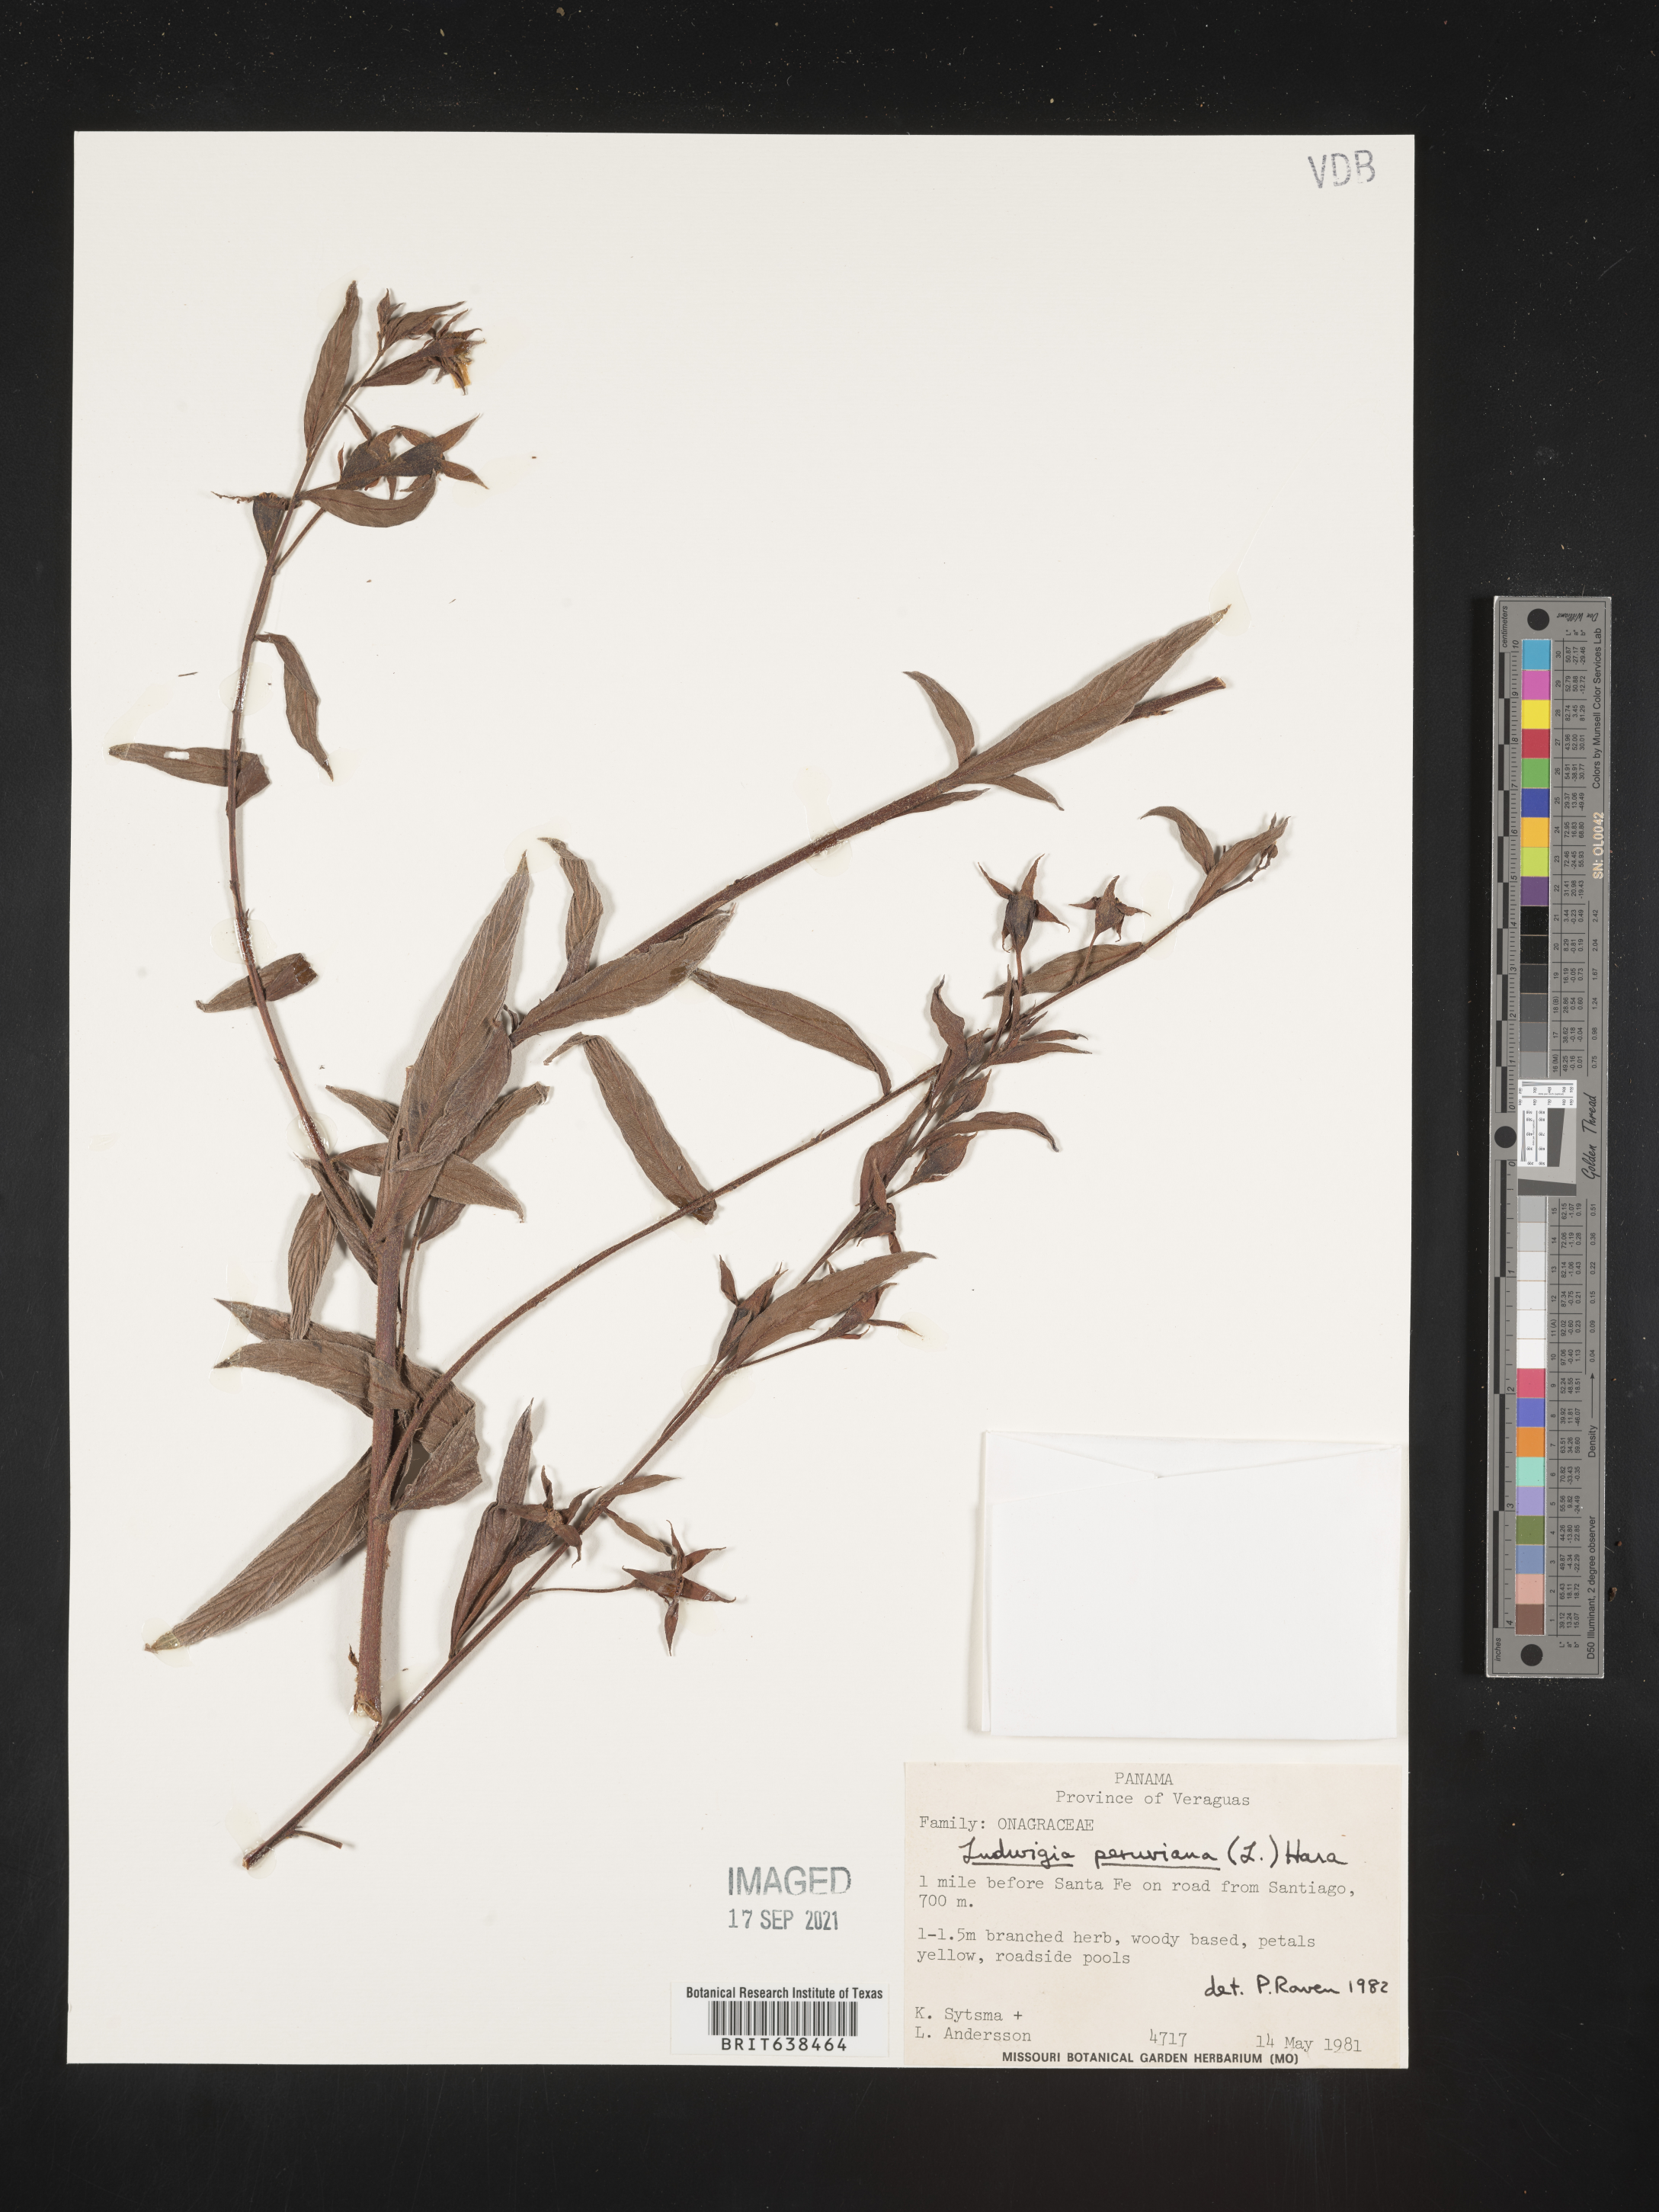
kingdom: Plantae
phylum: Tracheophyta
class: Magnoliopsida
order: Myrtales
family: Onagraceae
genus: Ludwigia
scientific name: Ludwigia
